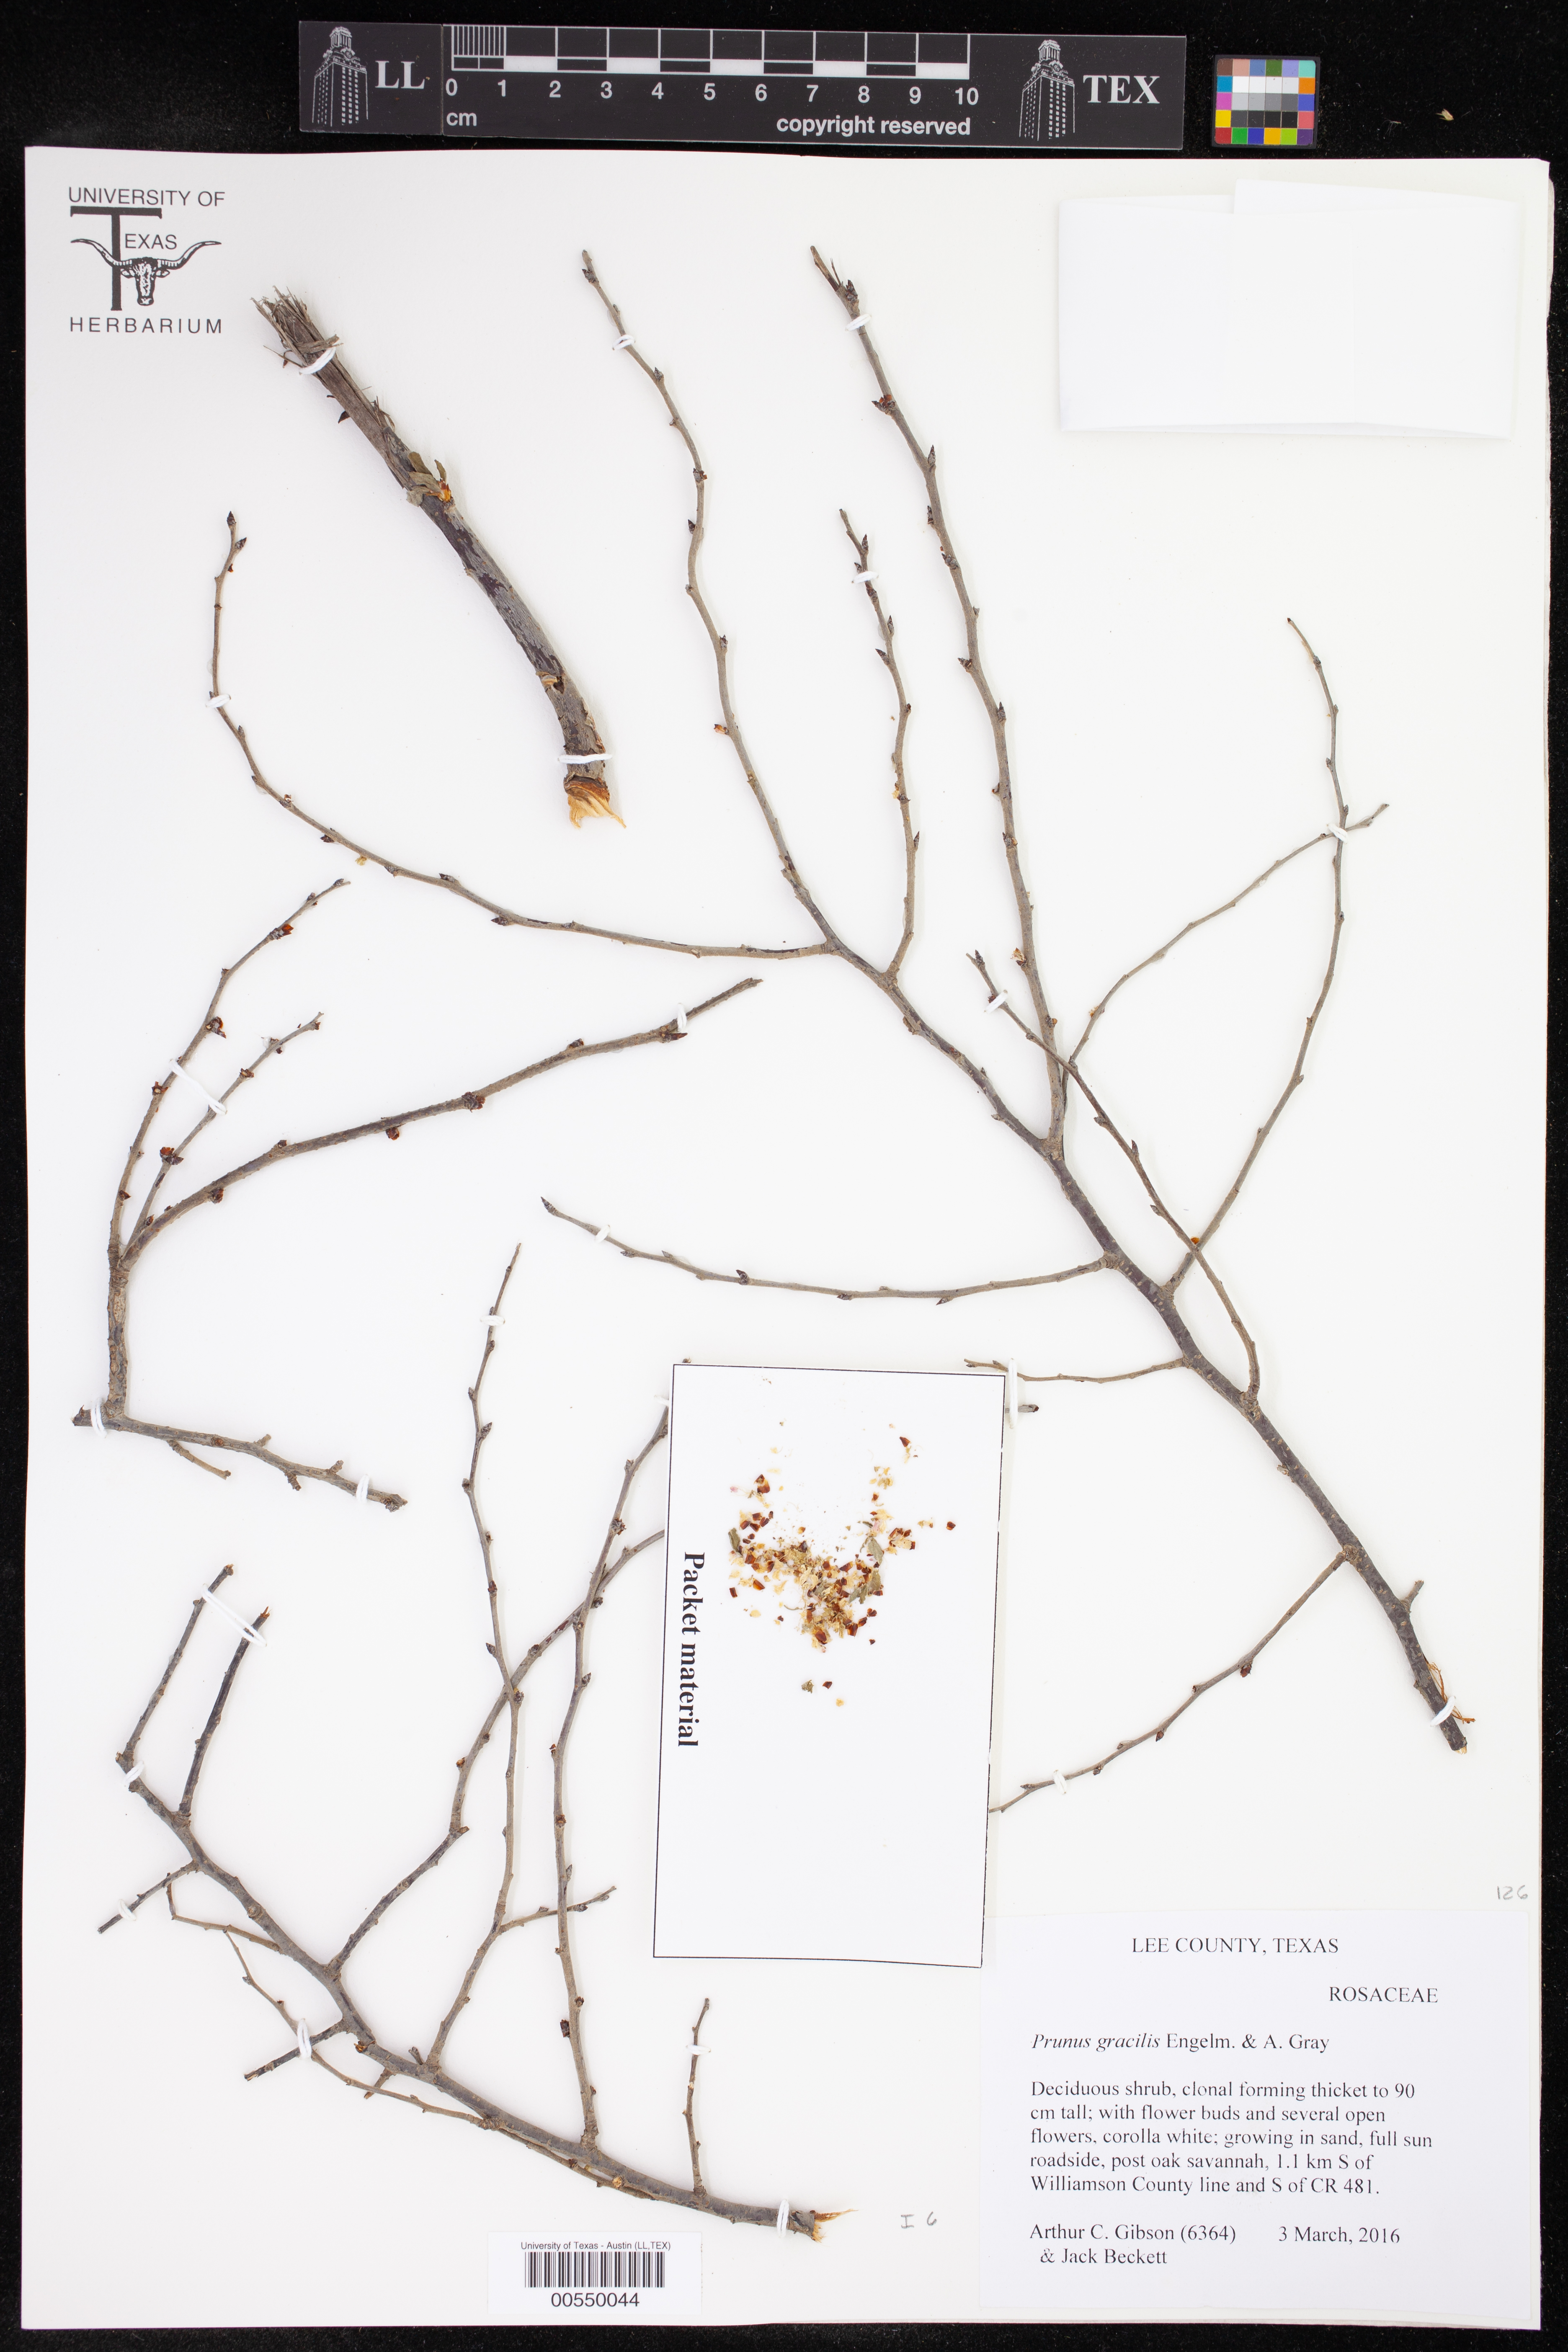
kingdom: Plantae
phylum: Tracheophyta
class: Magnoliopsida
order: Rosales
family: Rosaceae
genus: Prunus
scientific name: Prunus gracilis
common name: Oklahoma plum
